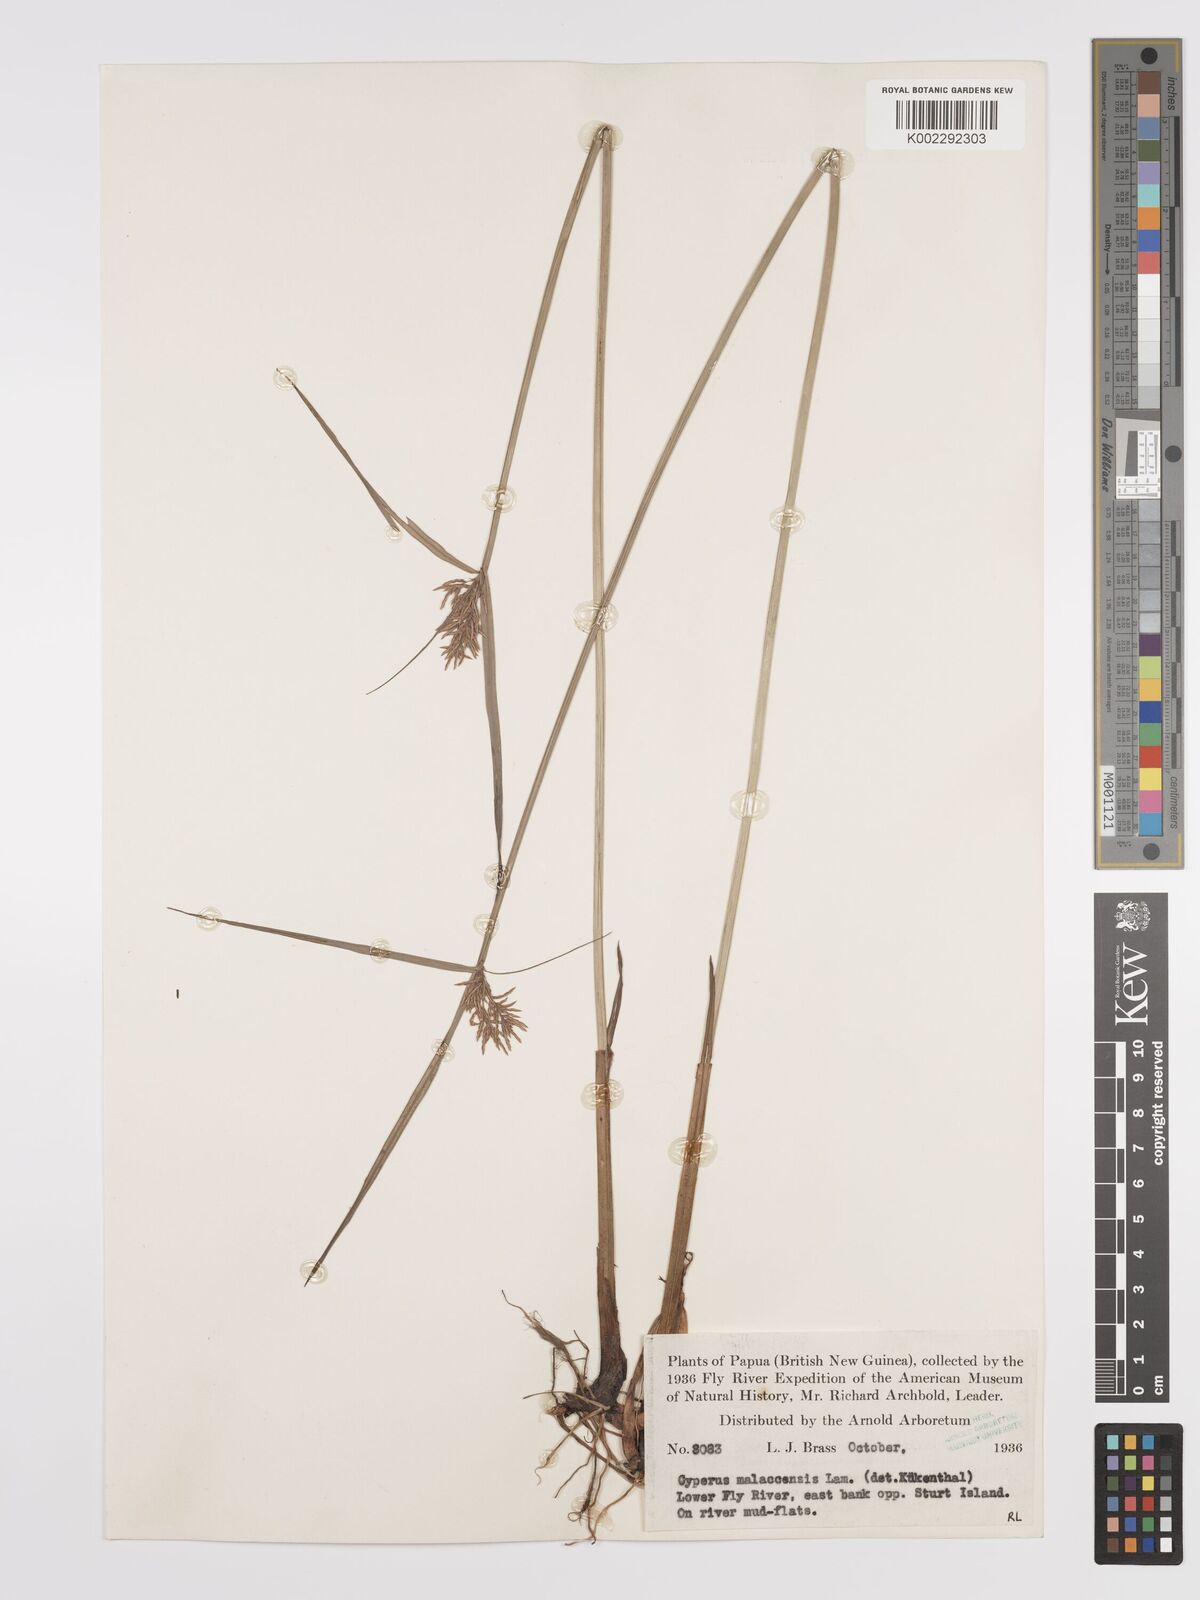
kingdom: Plantae
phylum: Tracheophyta
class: Liliopsida
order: Poales
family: Cyperaceae
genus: Cyperus
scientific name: Cyperus malaccensis
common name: Shichito matgrass
